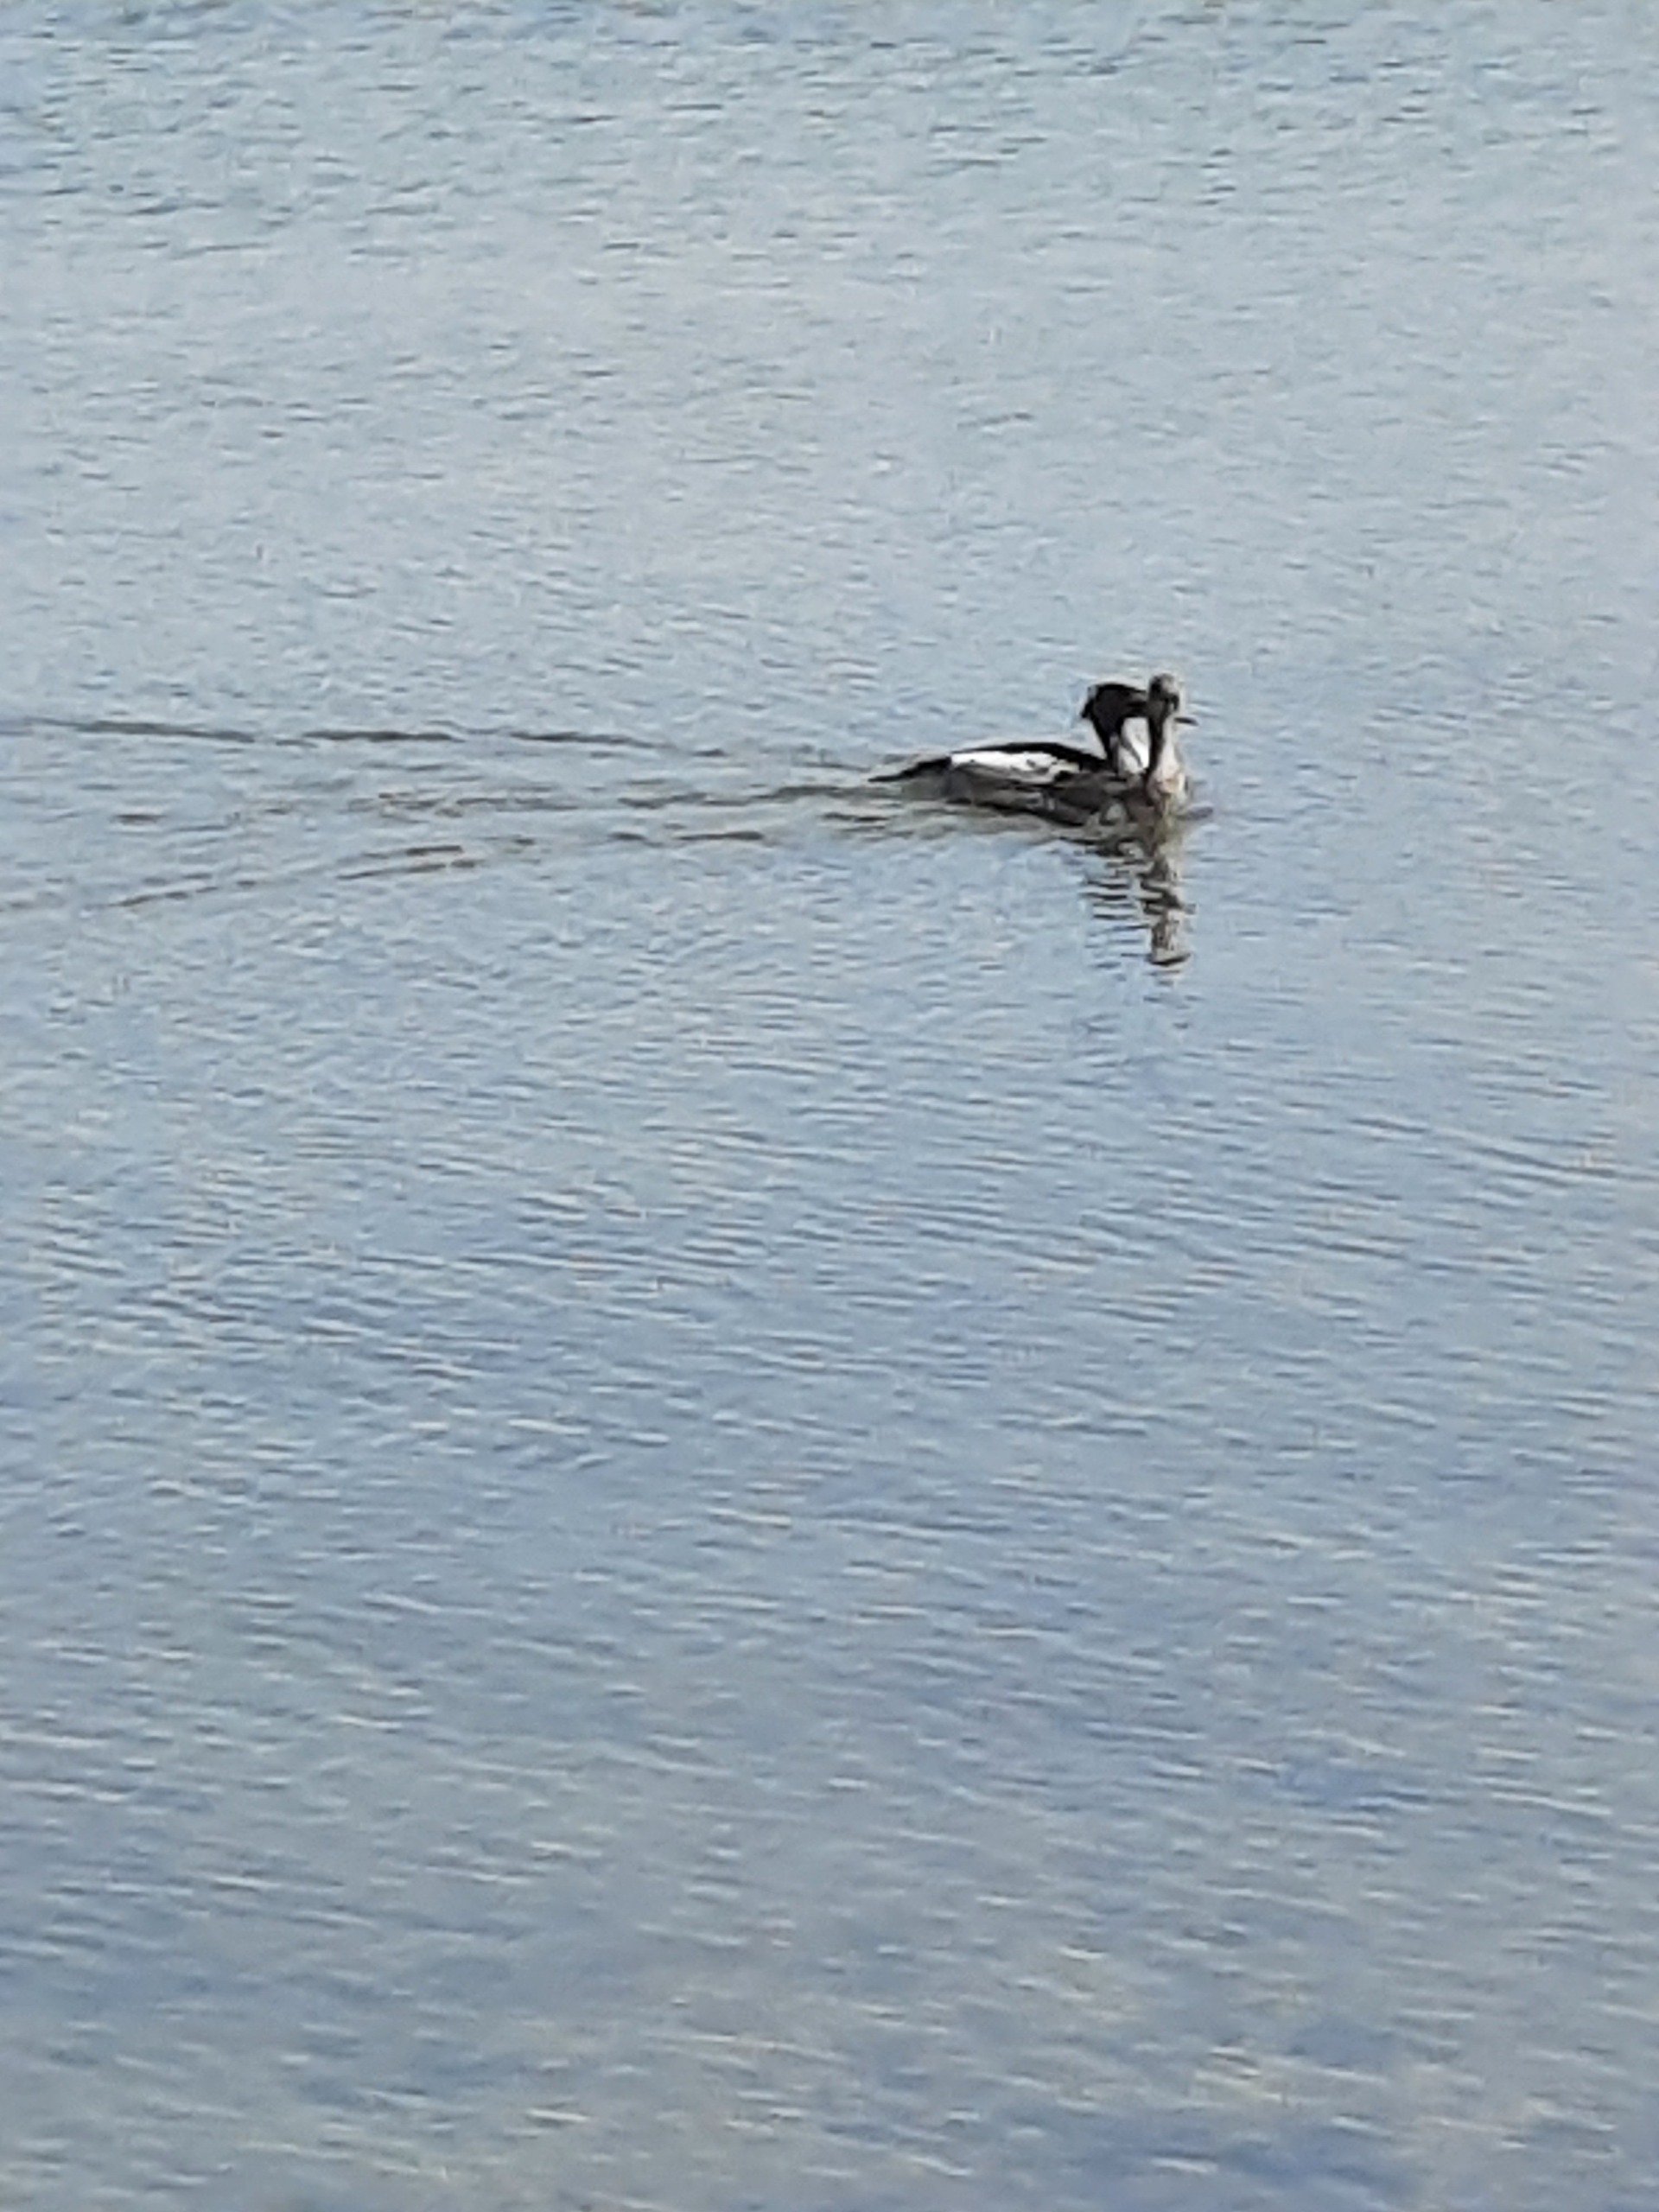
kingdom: Animalia
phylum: Chordata
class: Aves
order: Anseriformes
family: Anatidae
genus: Mergus
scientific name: Mergus serrator
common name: Toppet skallesluger
